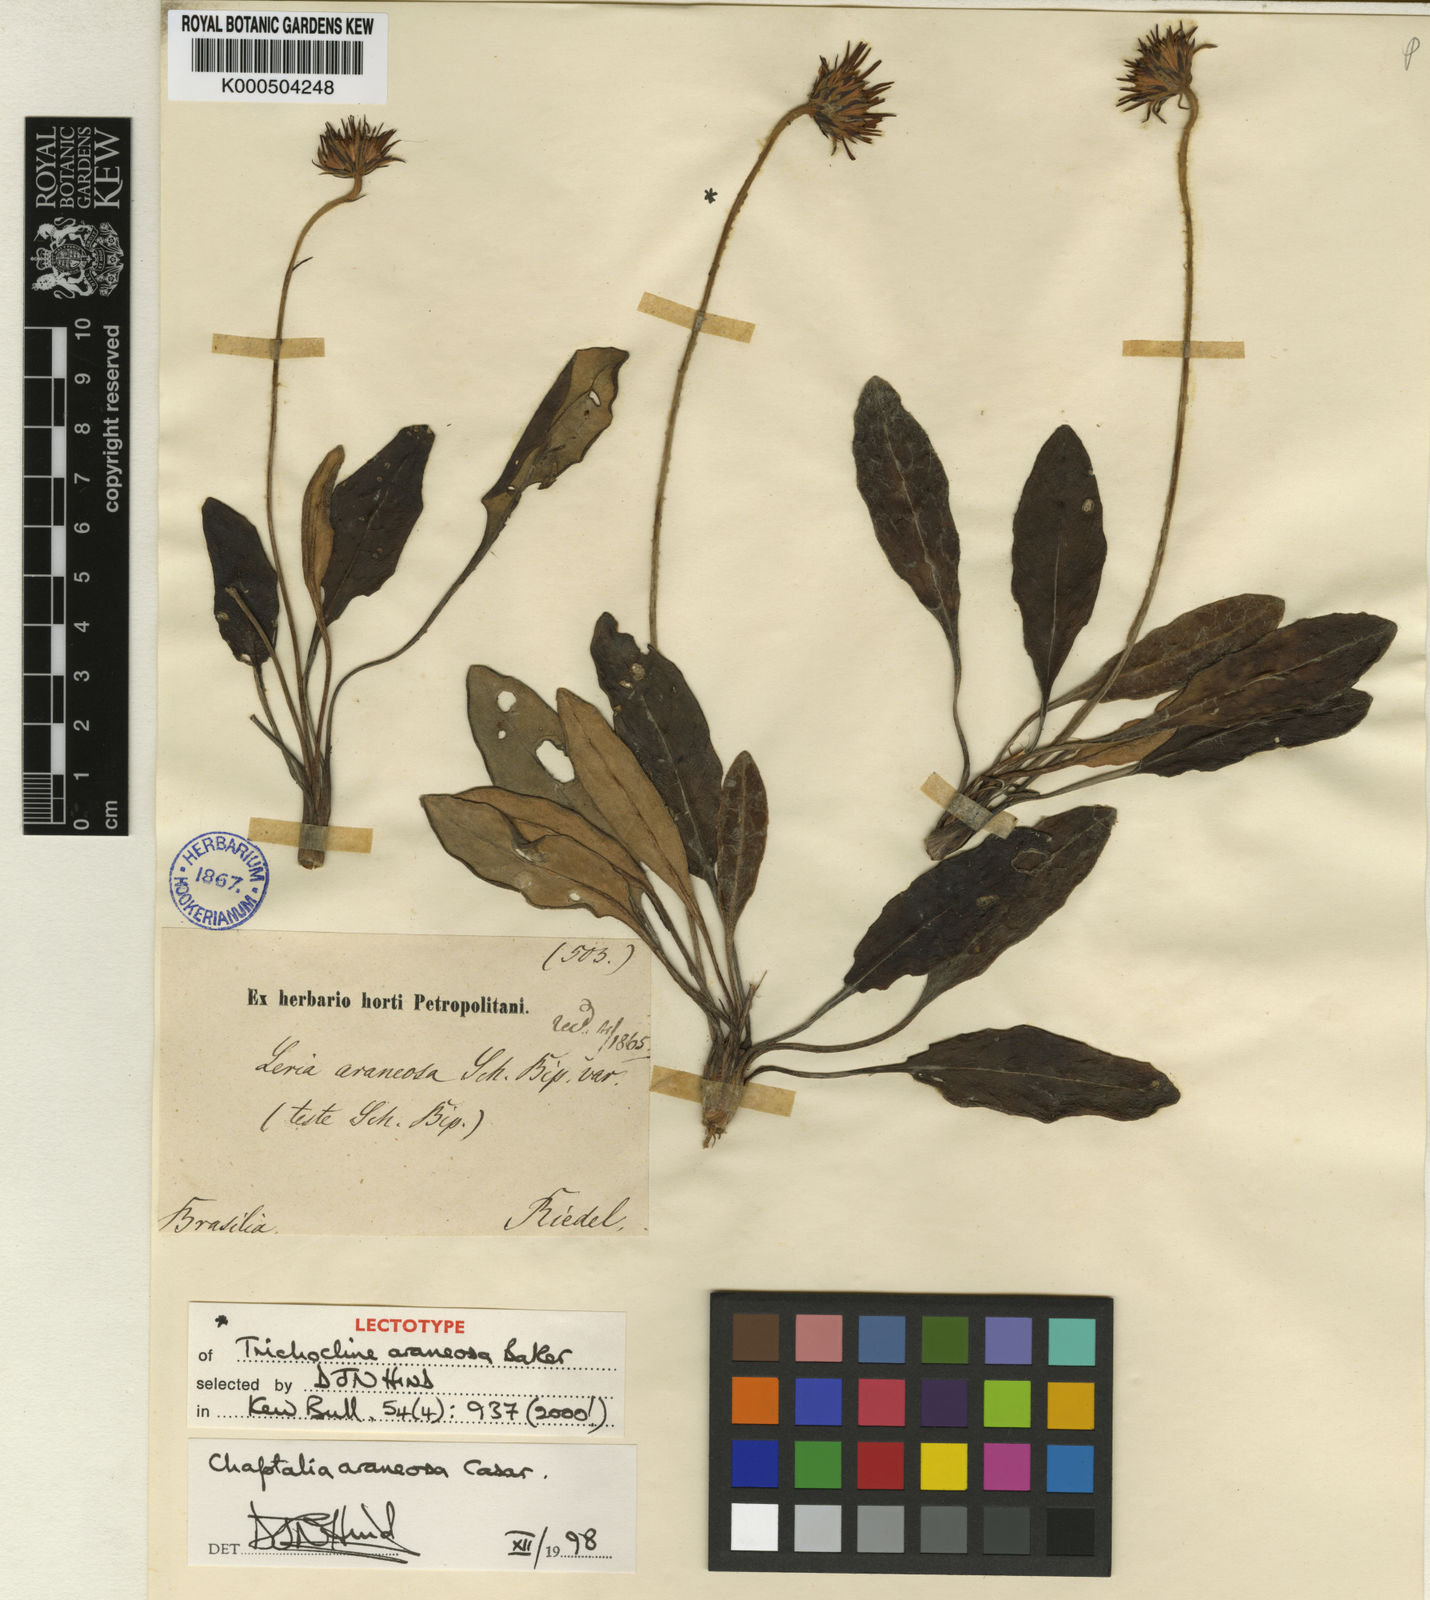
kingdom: Plantae
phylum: Tracheophyta
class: Magnoliopsida
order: Asterales
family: Asteraceae
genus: Chaptalia
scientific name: Chaptalia araneosa
